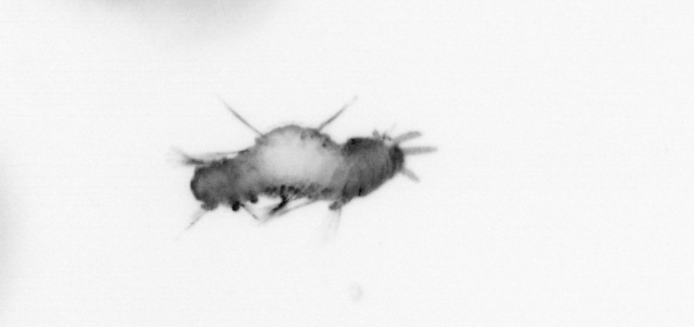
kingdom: Animalia
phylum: Annelida
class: Polychaeta
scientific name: Polychaeta
